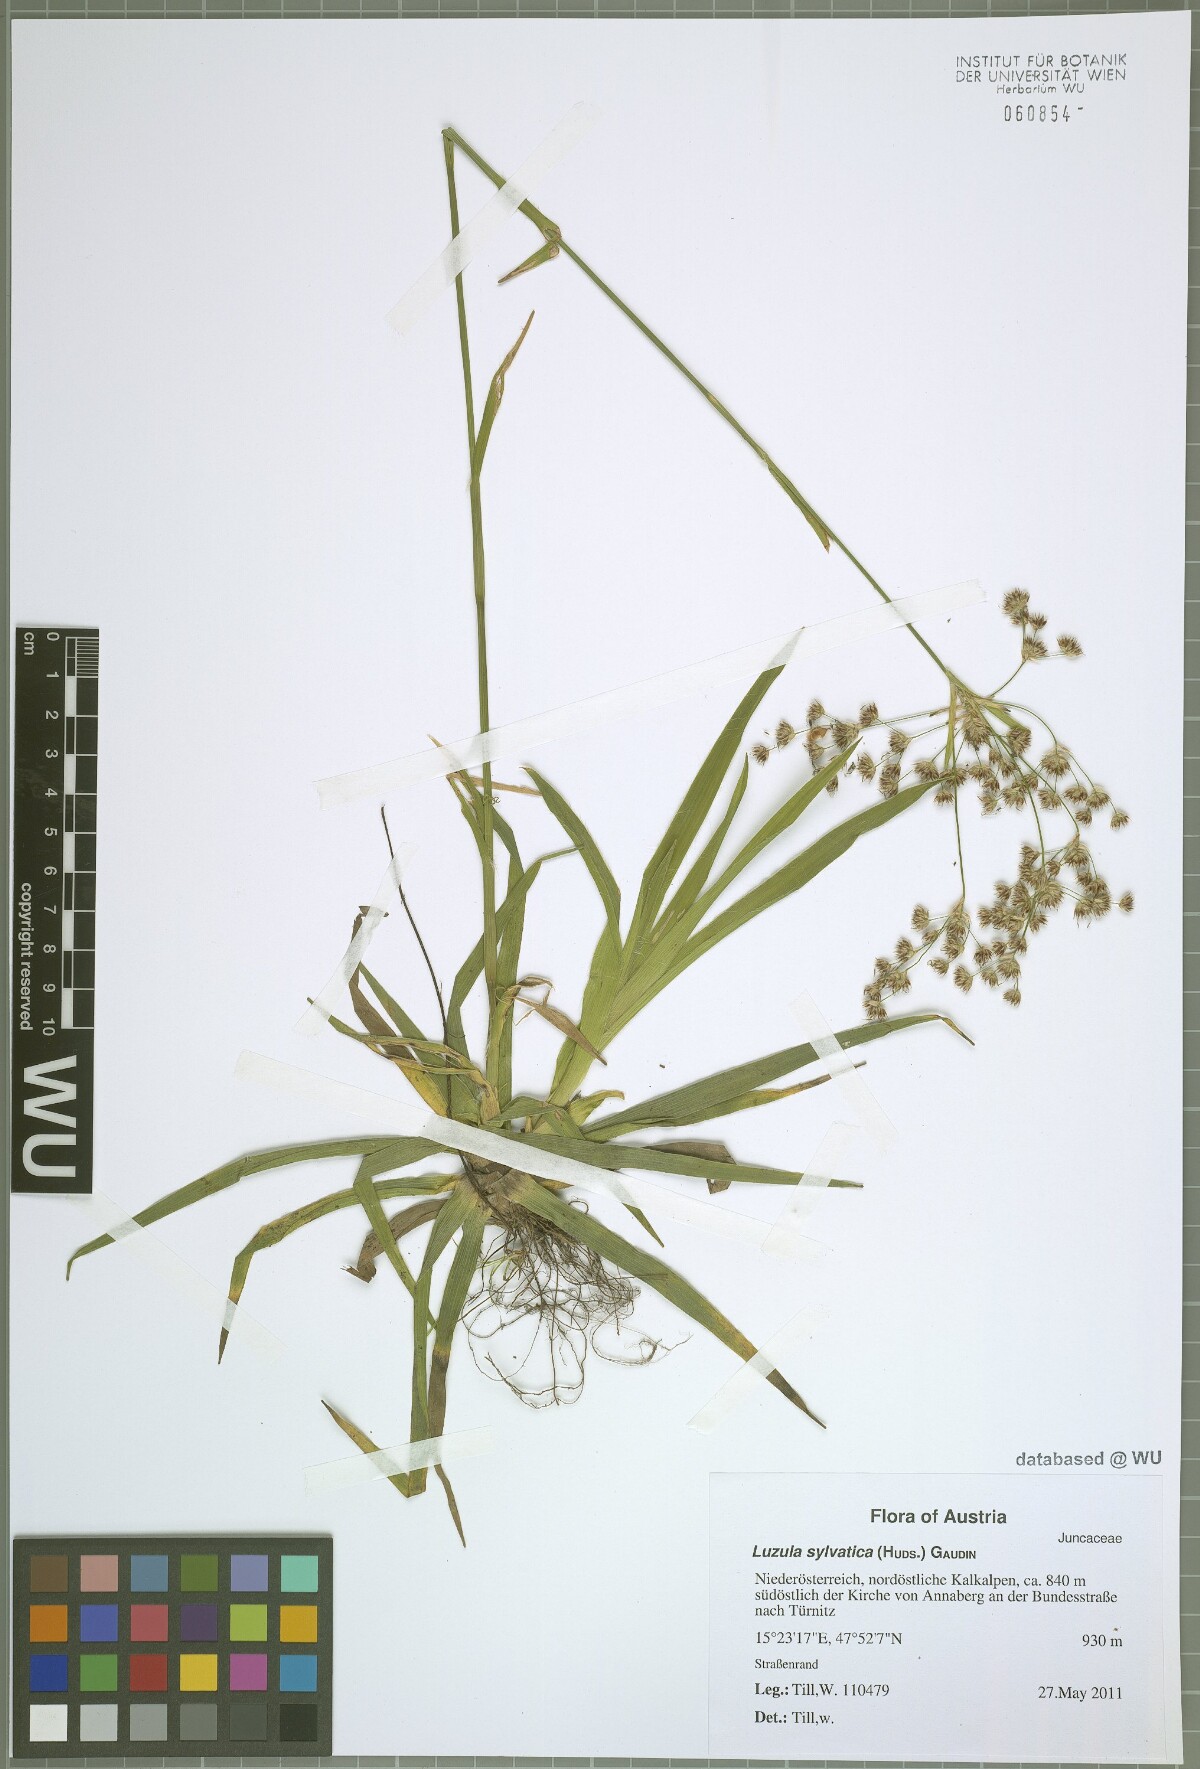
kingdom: Plantae
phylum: Tracheophyta
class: Liliopsida
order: Poales
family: Juncaceae
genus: Luzula
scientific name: Luzula sylvatica
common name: Great wood-rush
